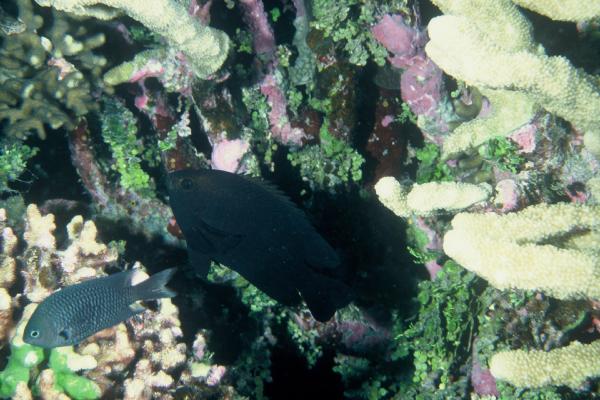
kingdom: Animalia
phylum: Chordata
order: Perciformes
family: Pomacentridae
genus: Neoglyphidodon
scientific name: Neoglyphidodon melas
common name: Black damsel
